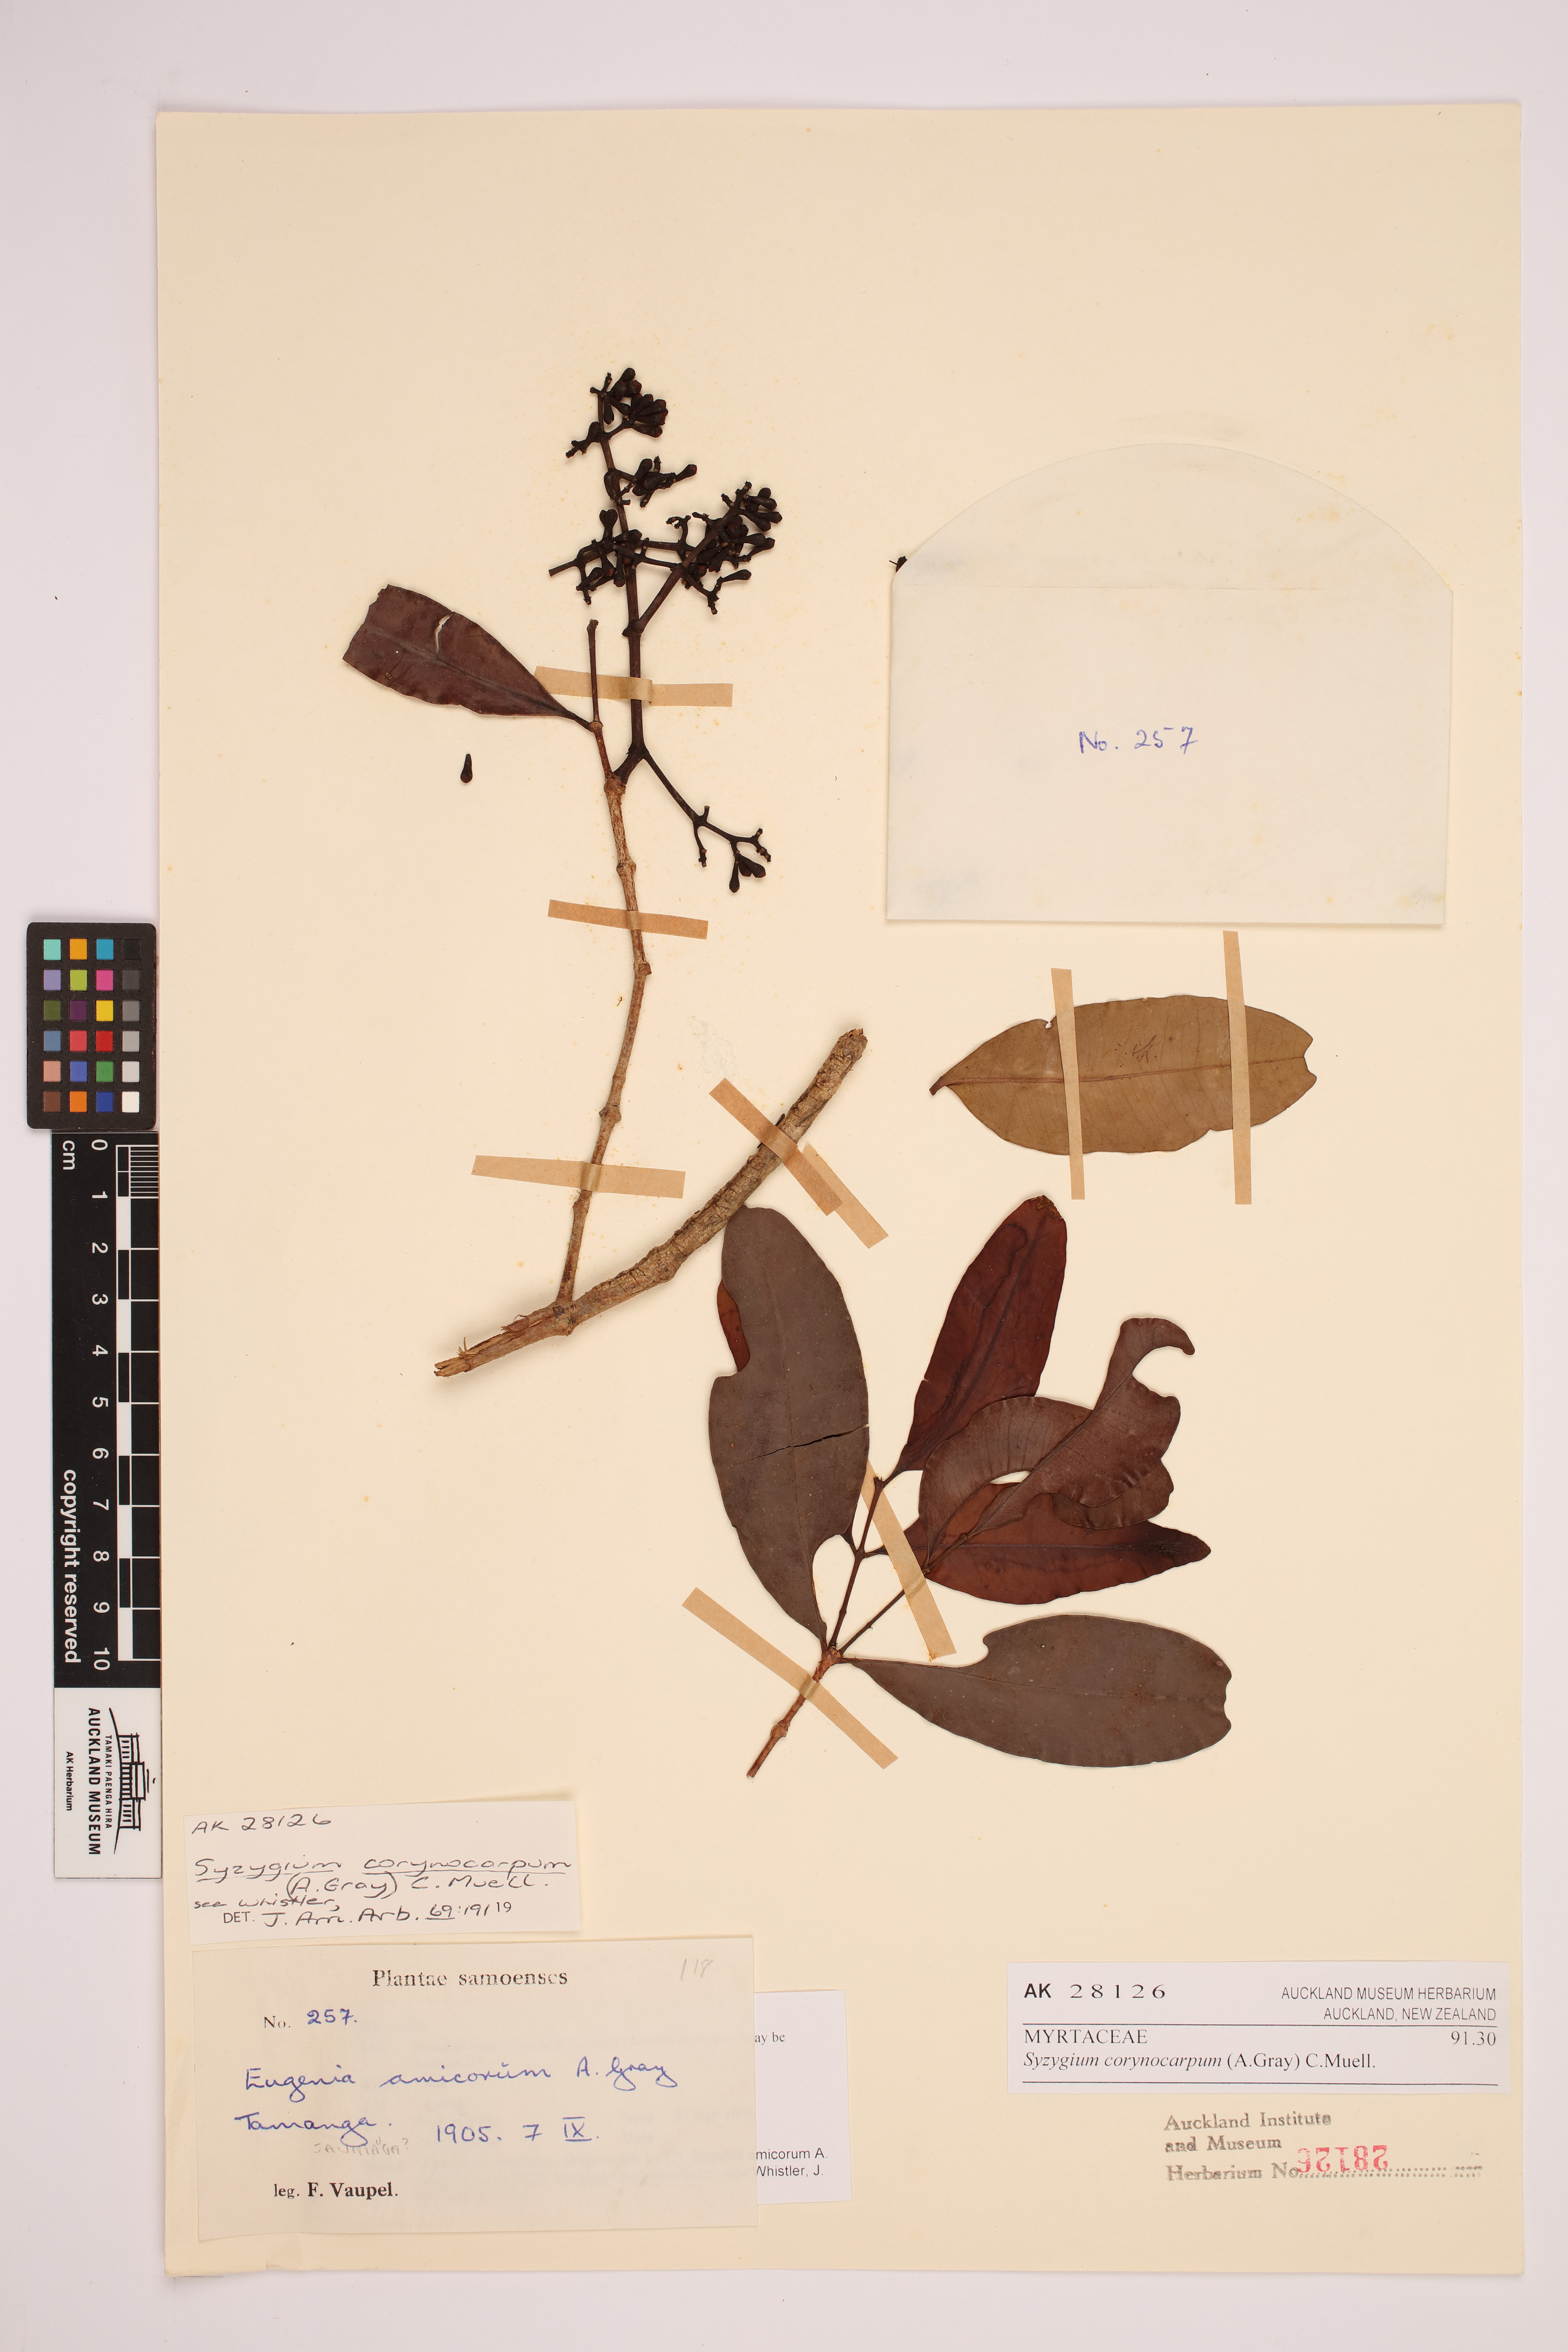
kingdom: Plantae
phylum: Tracheophyta
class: Magnoliopsida
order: Myrtales
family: Myrtaceae
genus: Syzygium
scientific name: Syzygium corynocarpum
